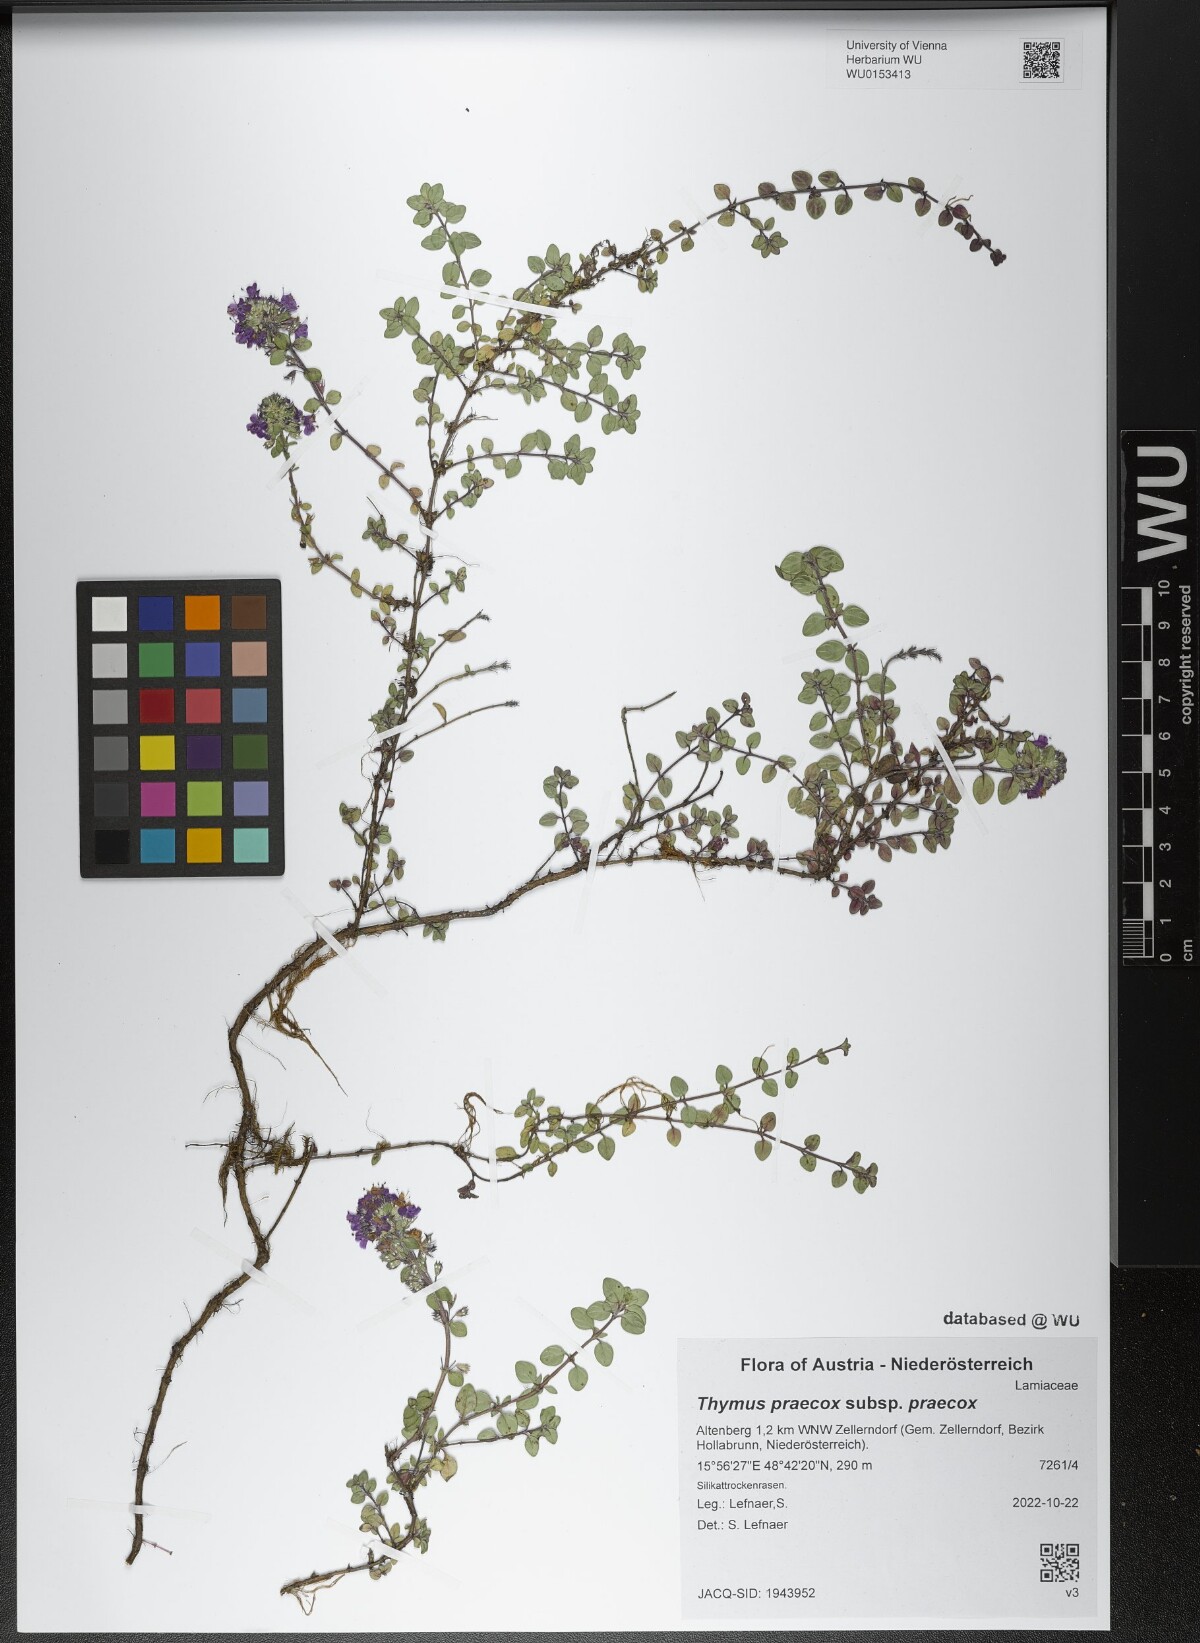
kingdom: Plantae
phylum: Tracheophyta
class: Magnoliopsida
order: Lamiales
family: Lamiaceae
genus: Thymus
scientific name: Thymus praecox
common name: Wild thyme
